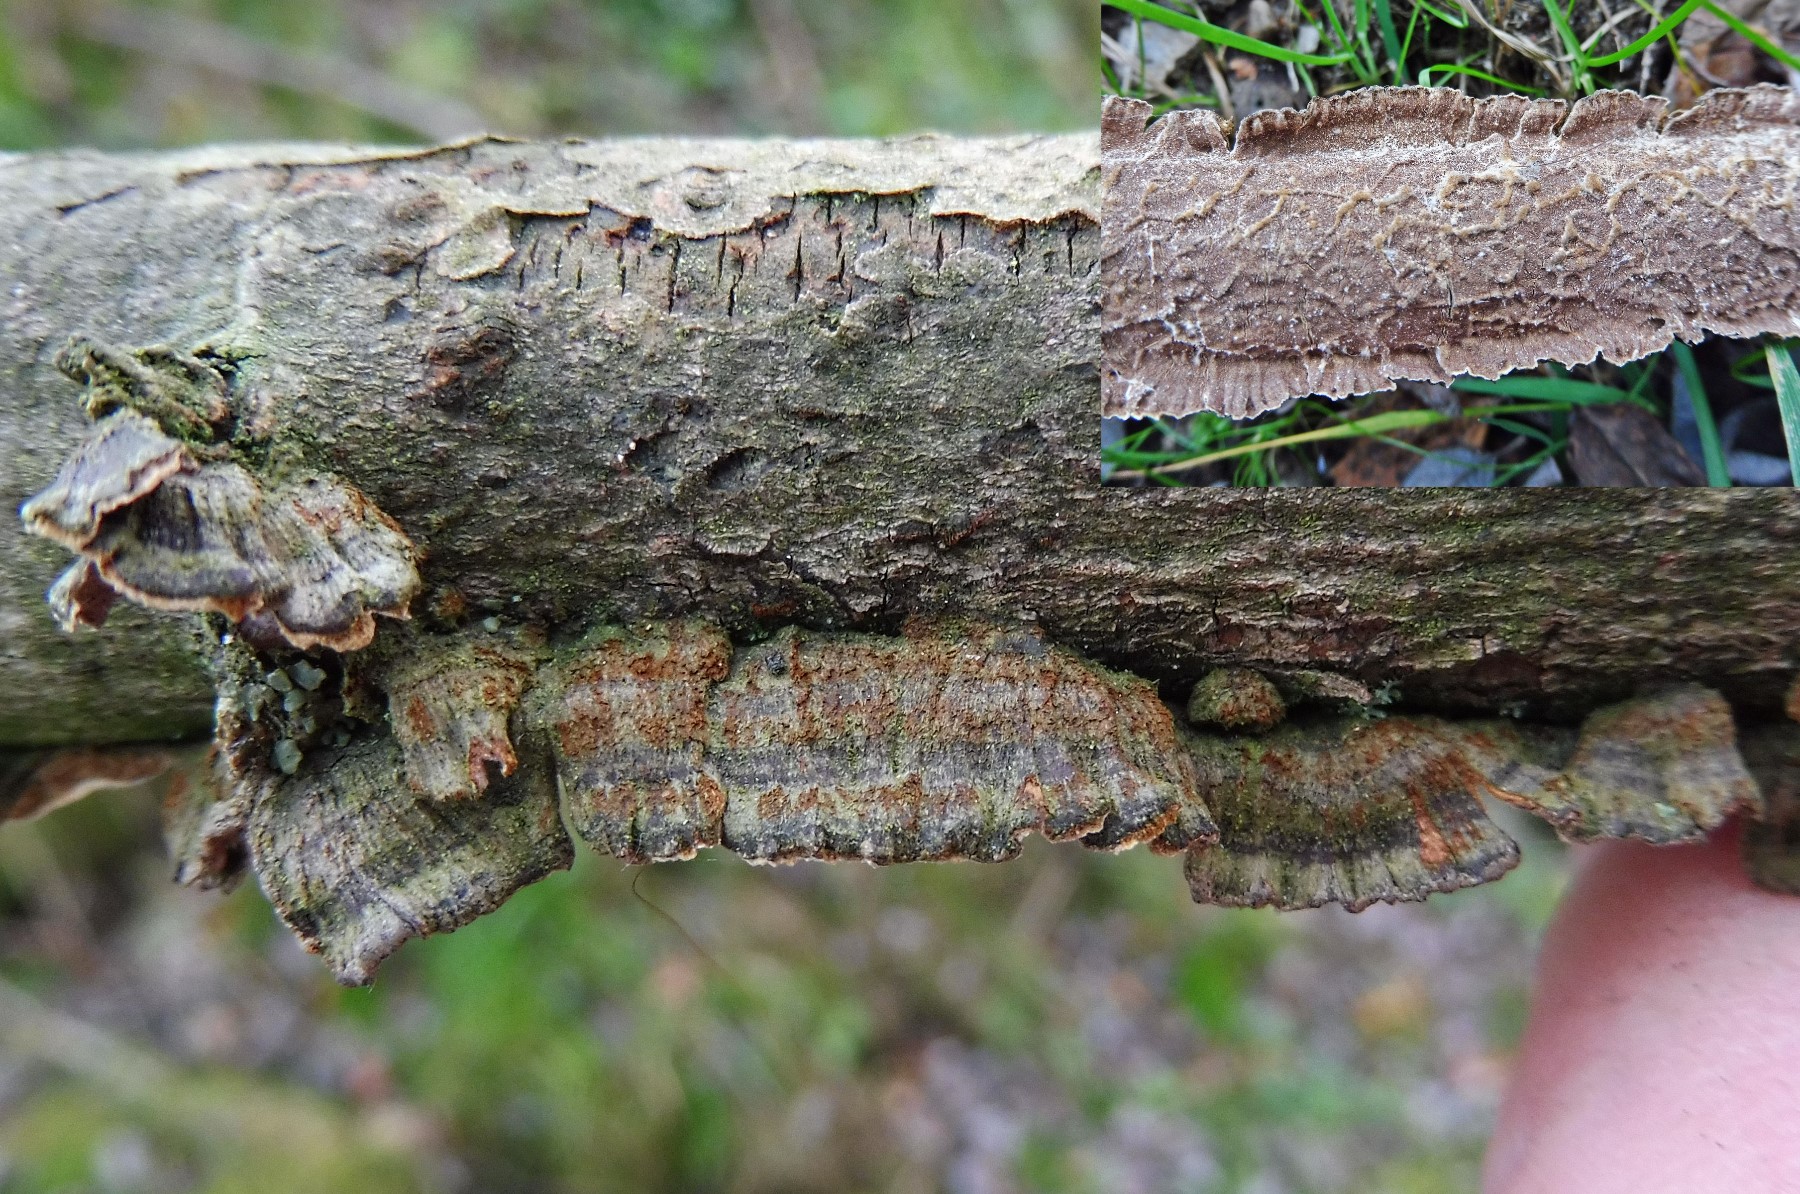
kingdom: Fungi
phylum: Basidiomycota
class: Agaricomycetes
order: Hymenochaetales
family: Hymenochaetaceae
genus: Hydnoporia
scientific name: Hydnoporia tabacina
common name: tobaksbrun ruslædersvamp
